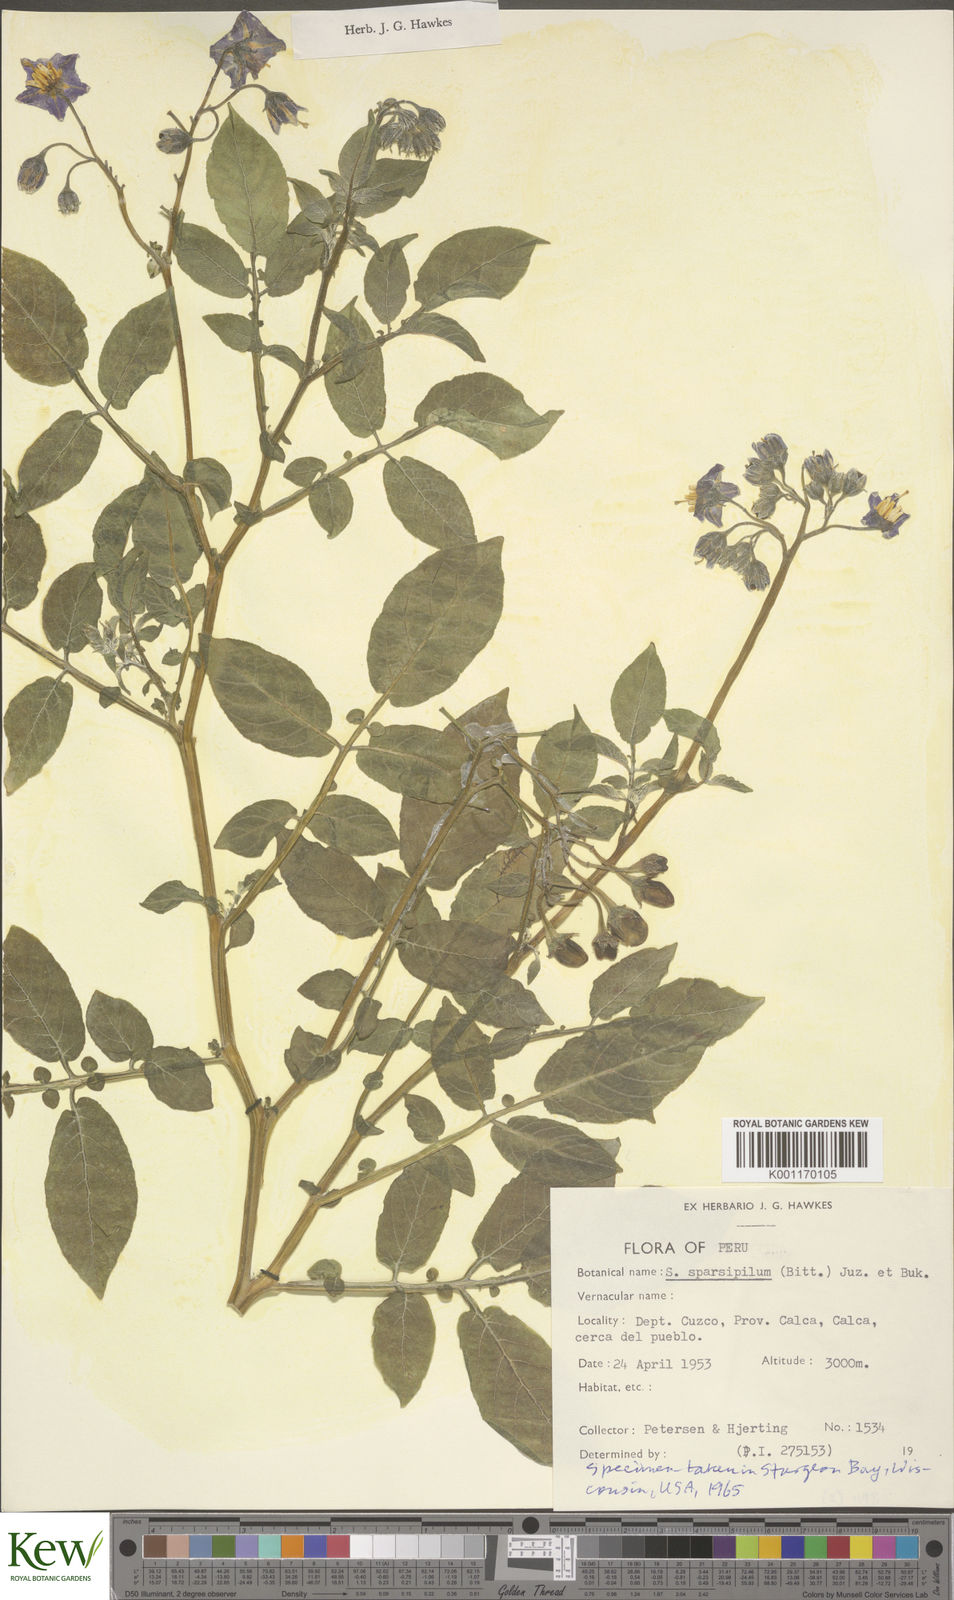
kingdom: Plantae
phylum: Tracheophyta
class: Magnoliopsida
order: Solanales
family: Solanaceae
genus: Solanum
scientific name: Solanum brevicaule
